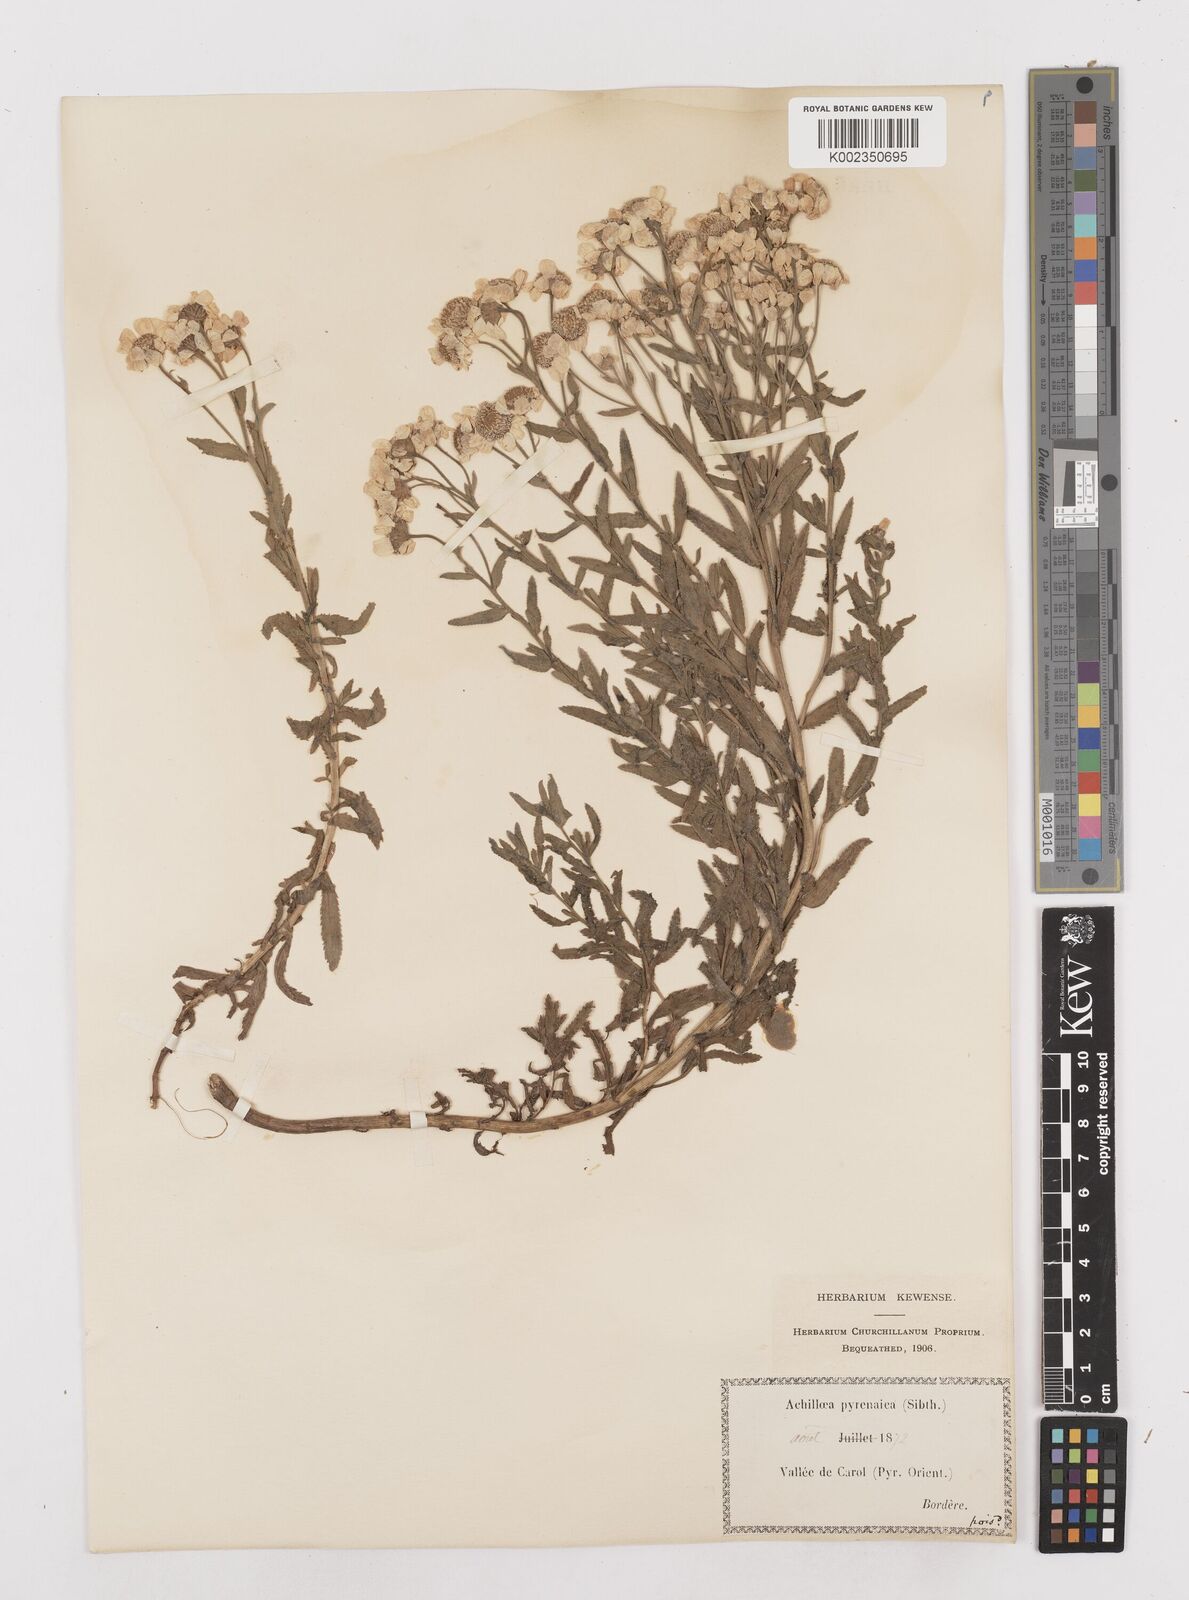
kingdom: Plantae
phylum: Tracheophyta
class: Magnoliopsida
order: Asterales
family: Asteraceae
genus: Achillea
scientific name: Achillea pyrenaica
